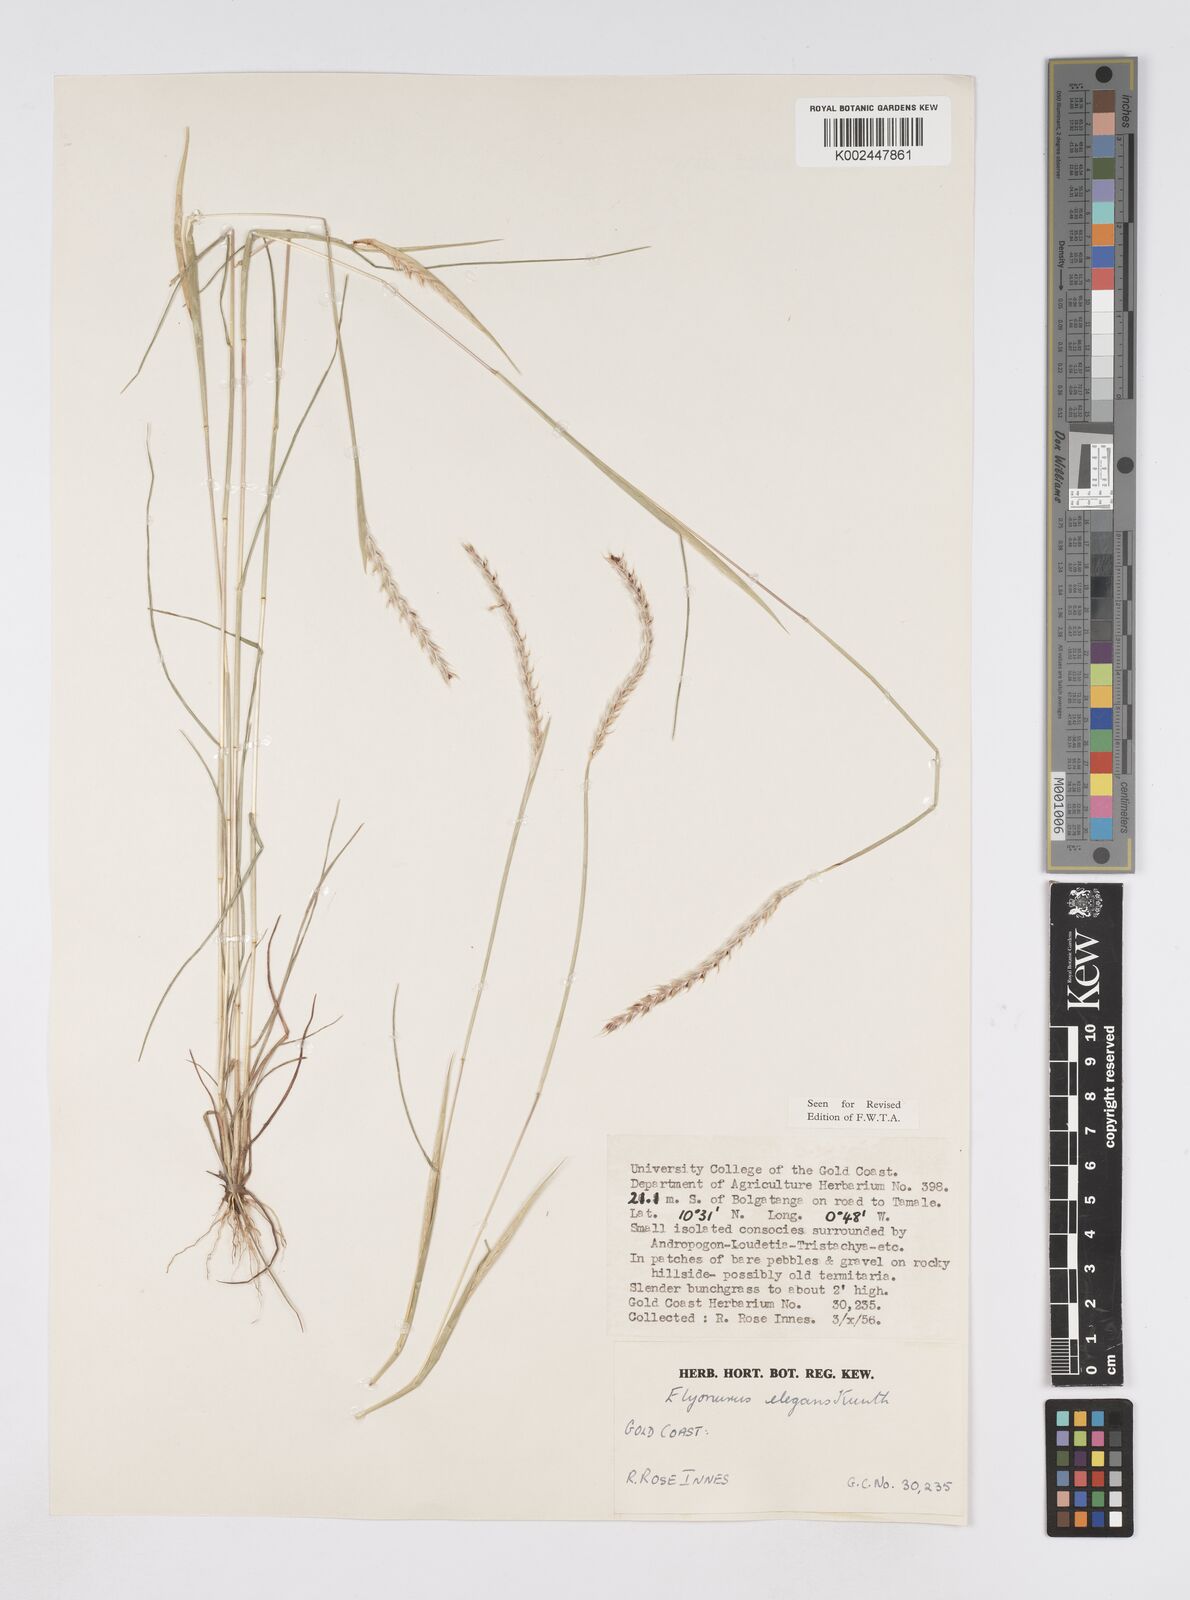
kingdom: Plantae
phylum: Tracheophyta
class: Liliopsida
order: Poales
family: Poaceae
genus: Elionurus
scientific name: Elionurus elegans
